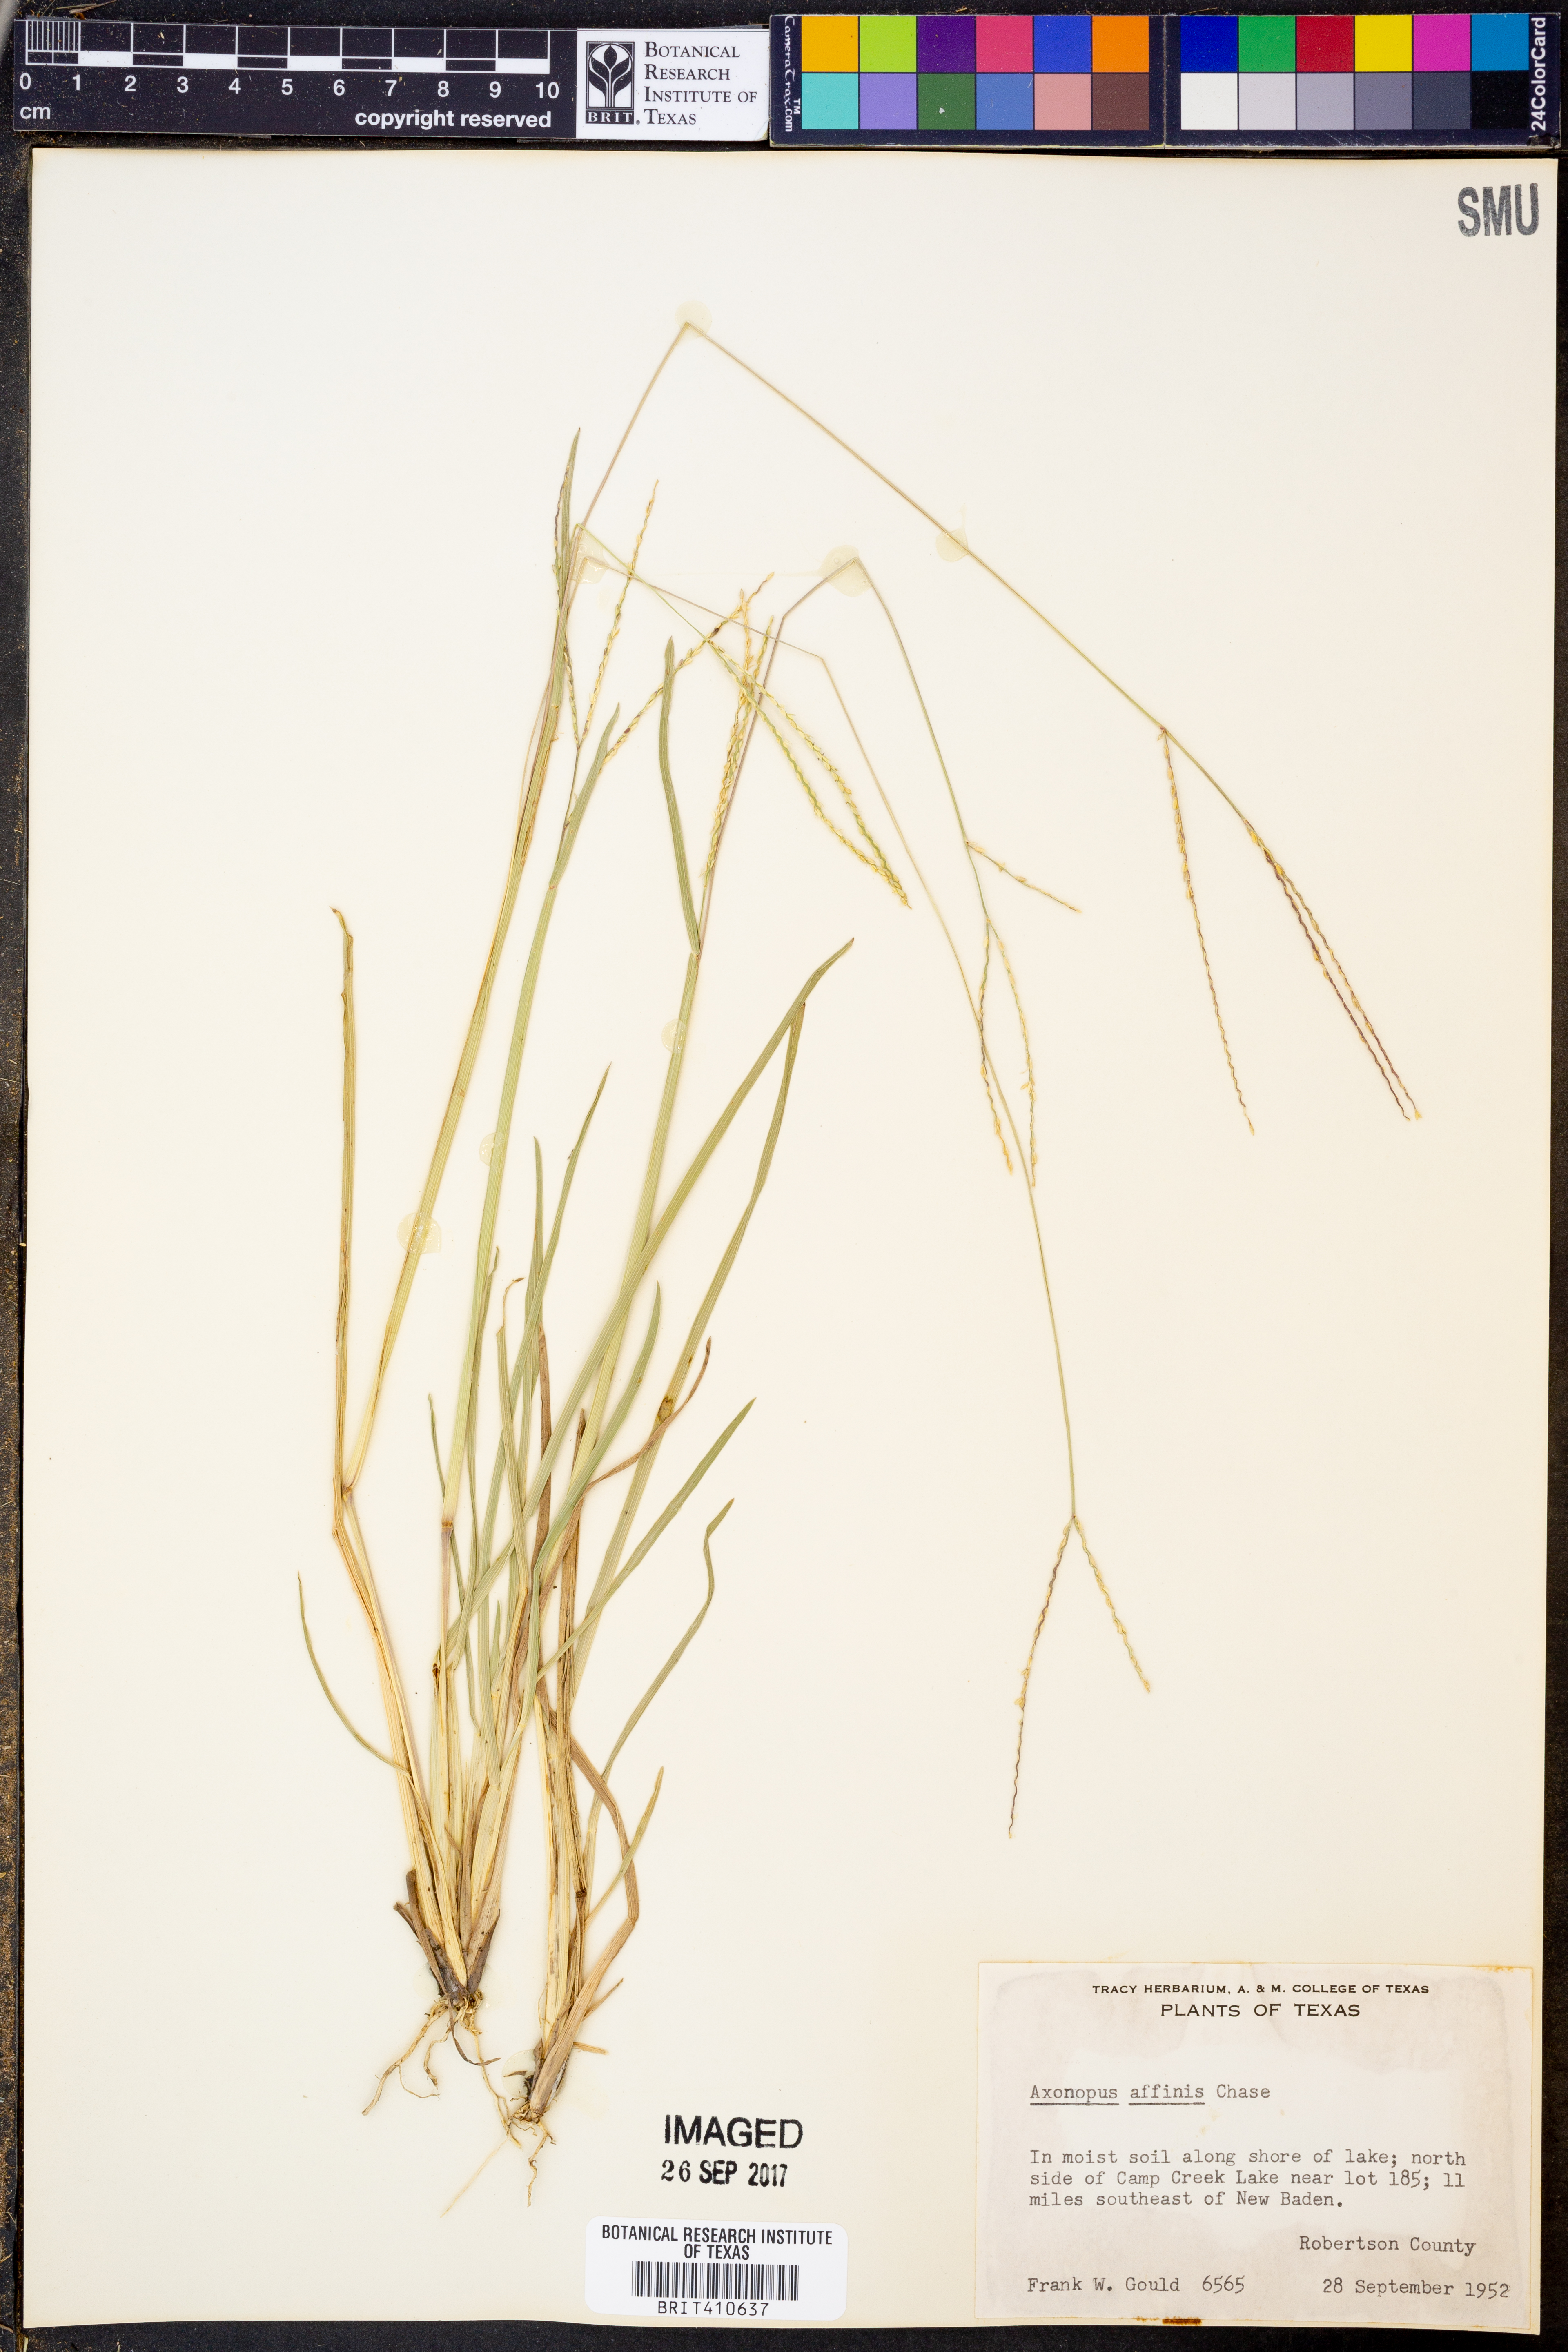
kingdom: Plantae
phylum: Tracheophyta
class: Liliopsida
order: Poales
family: Poaceae
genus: Axonopus
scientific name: Axonopus fissifolius
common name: Common carpetgrass
